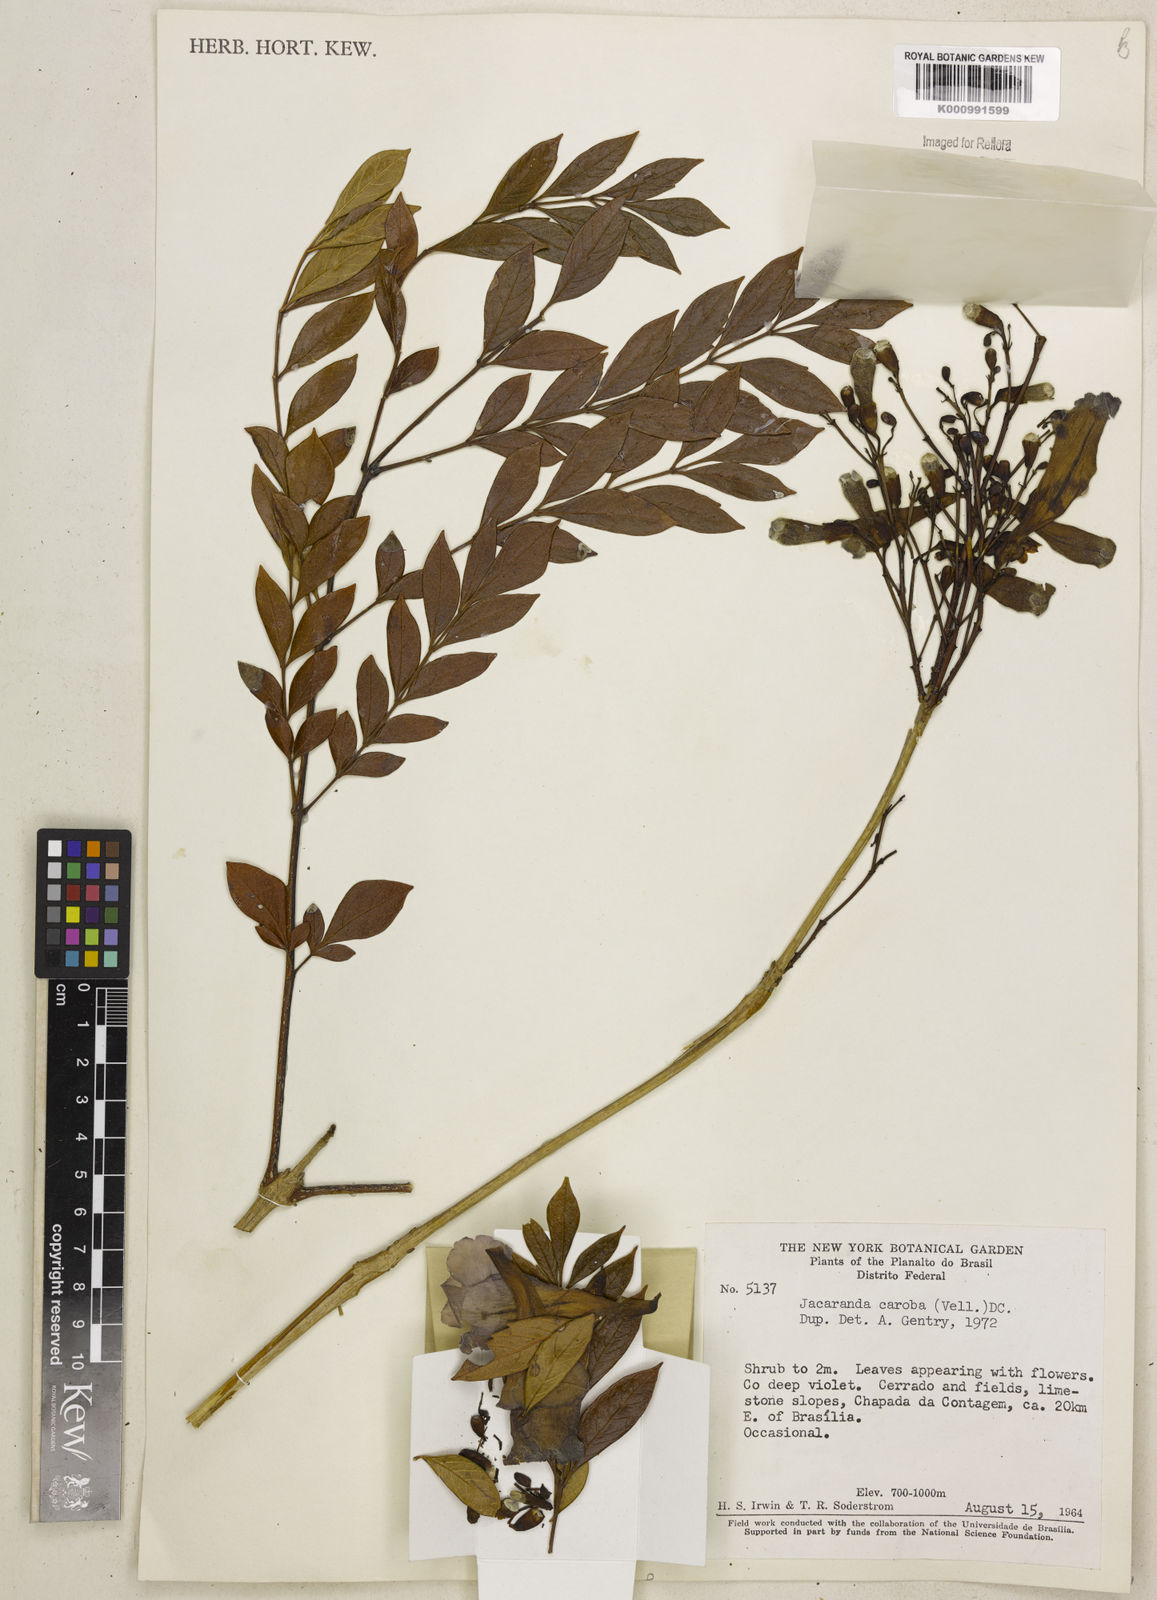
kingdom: Plantae
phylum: Tracheophyta
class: Magnoliopsida
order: Lamiales
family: Bignoniaceae
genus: Jacaranda
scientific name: Jacaranda caroba
